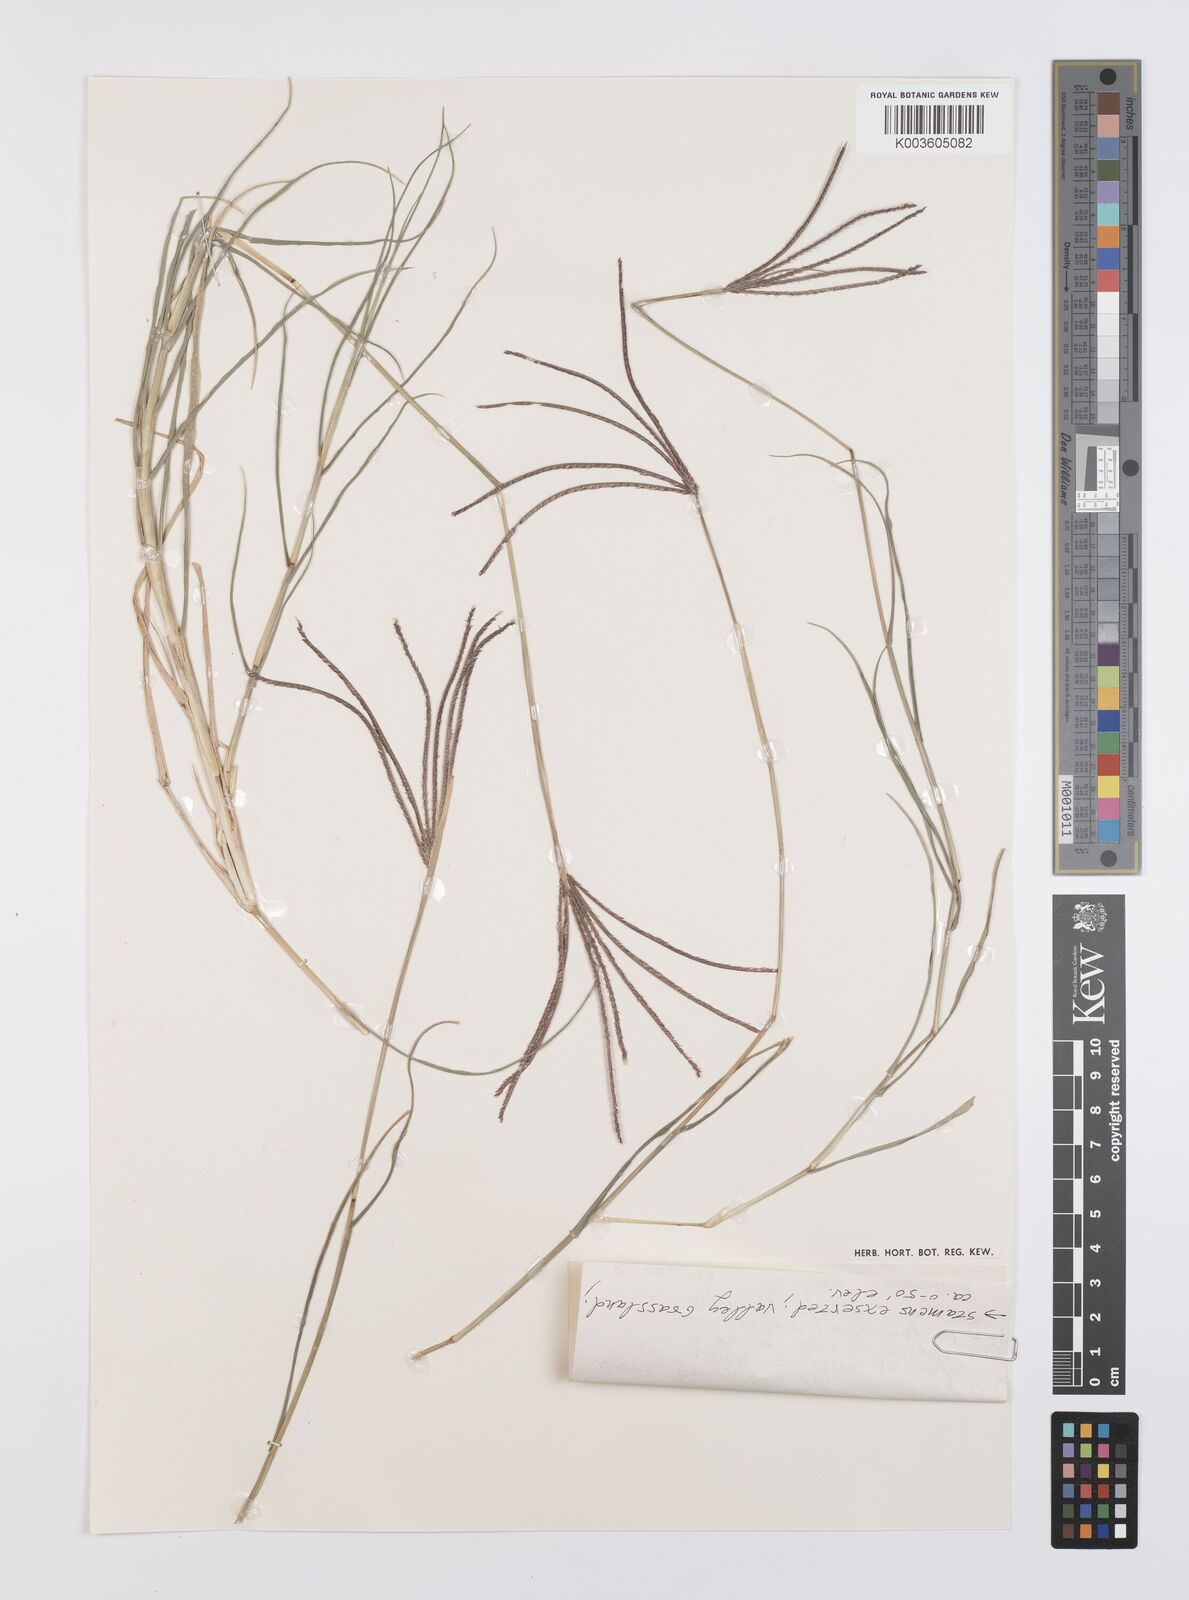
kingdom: Plantae
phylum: Tracheophyta
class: Liliopsida
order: Poales
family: Poaceae
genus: Cynodon
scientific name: Cynodon dactylon
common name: Bermuda grass
